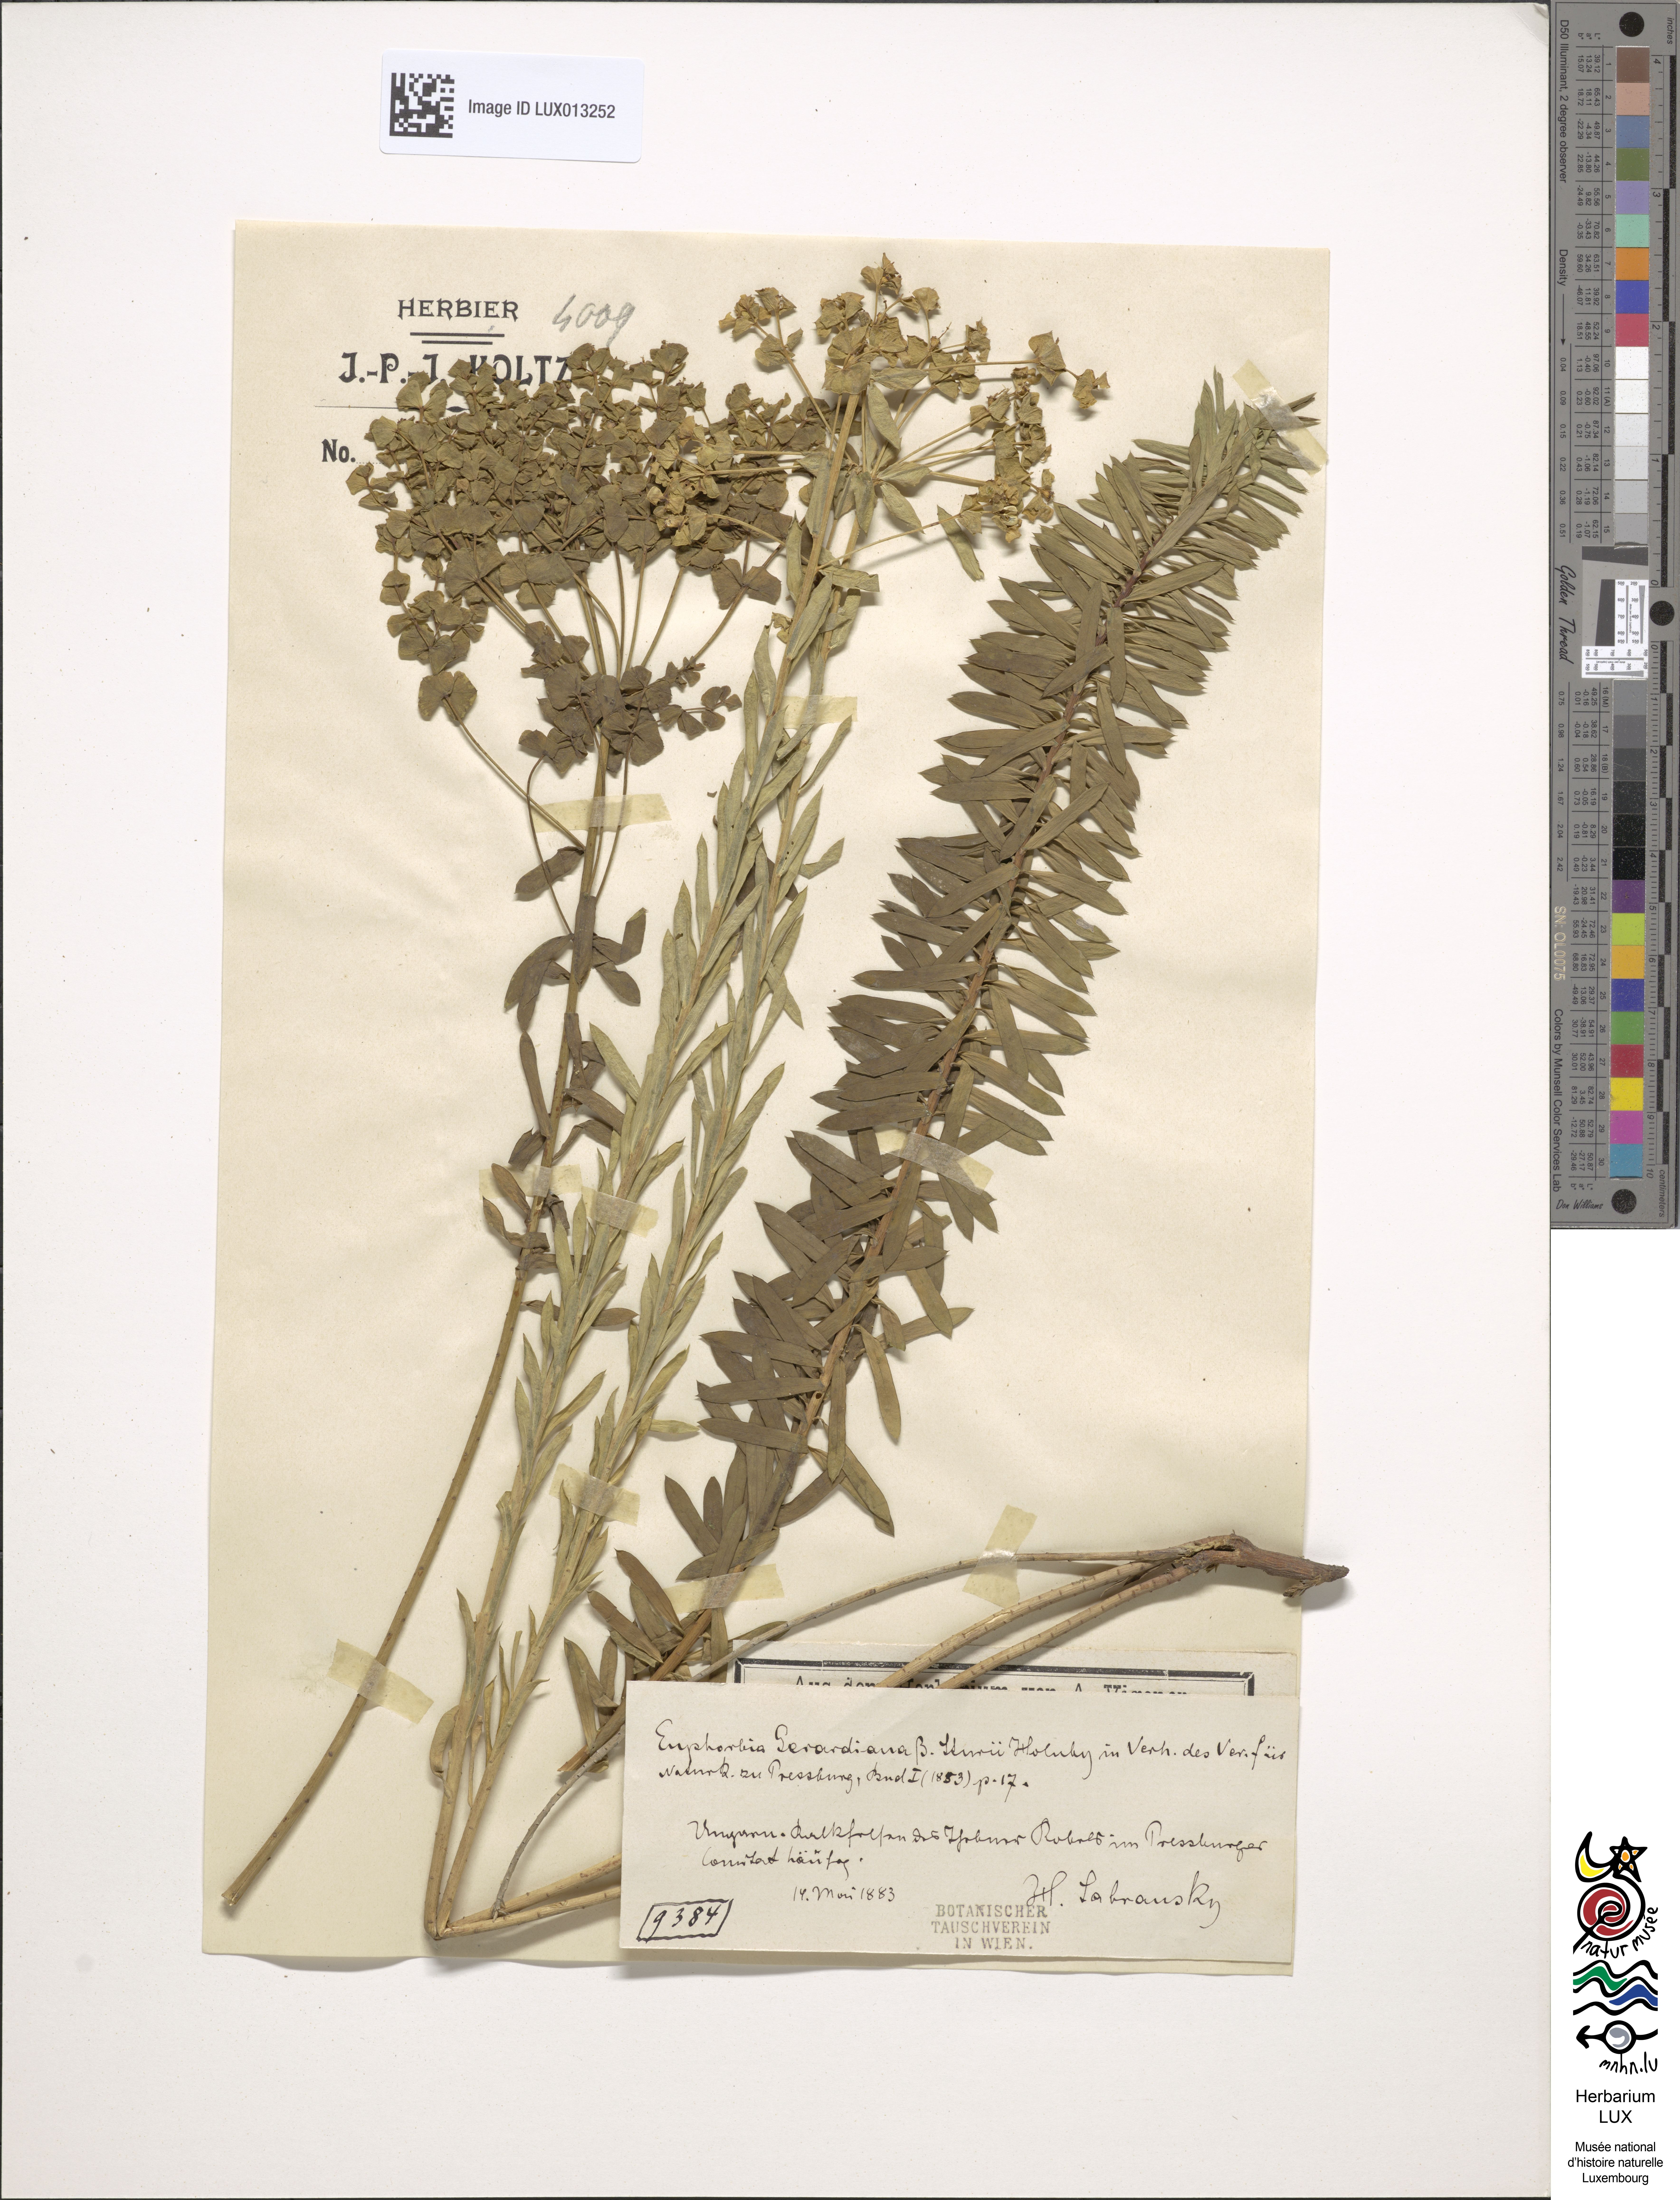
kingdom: Plantae
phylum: Tracheophyta
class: Magnoliopsida
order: Malpighiales
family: Euphorbiaceae
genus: Euphorbia
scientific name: Euphorbia seguieriana
